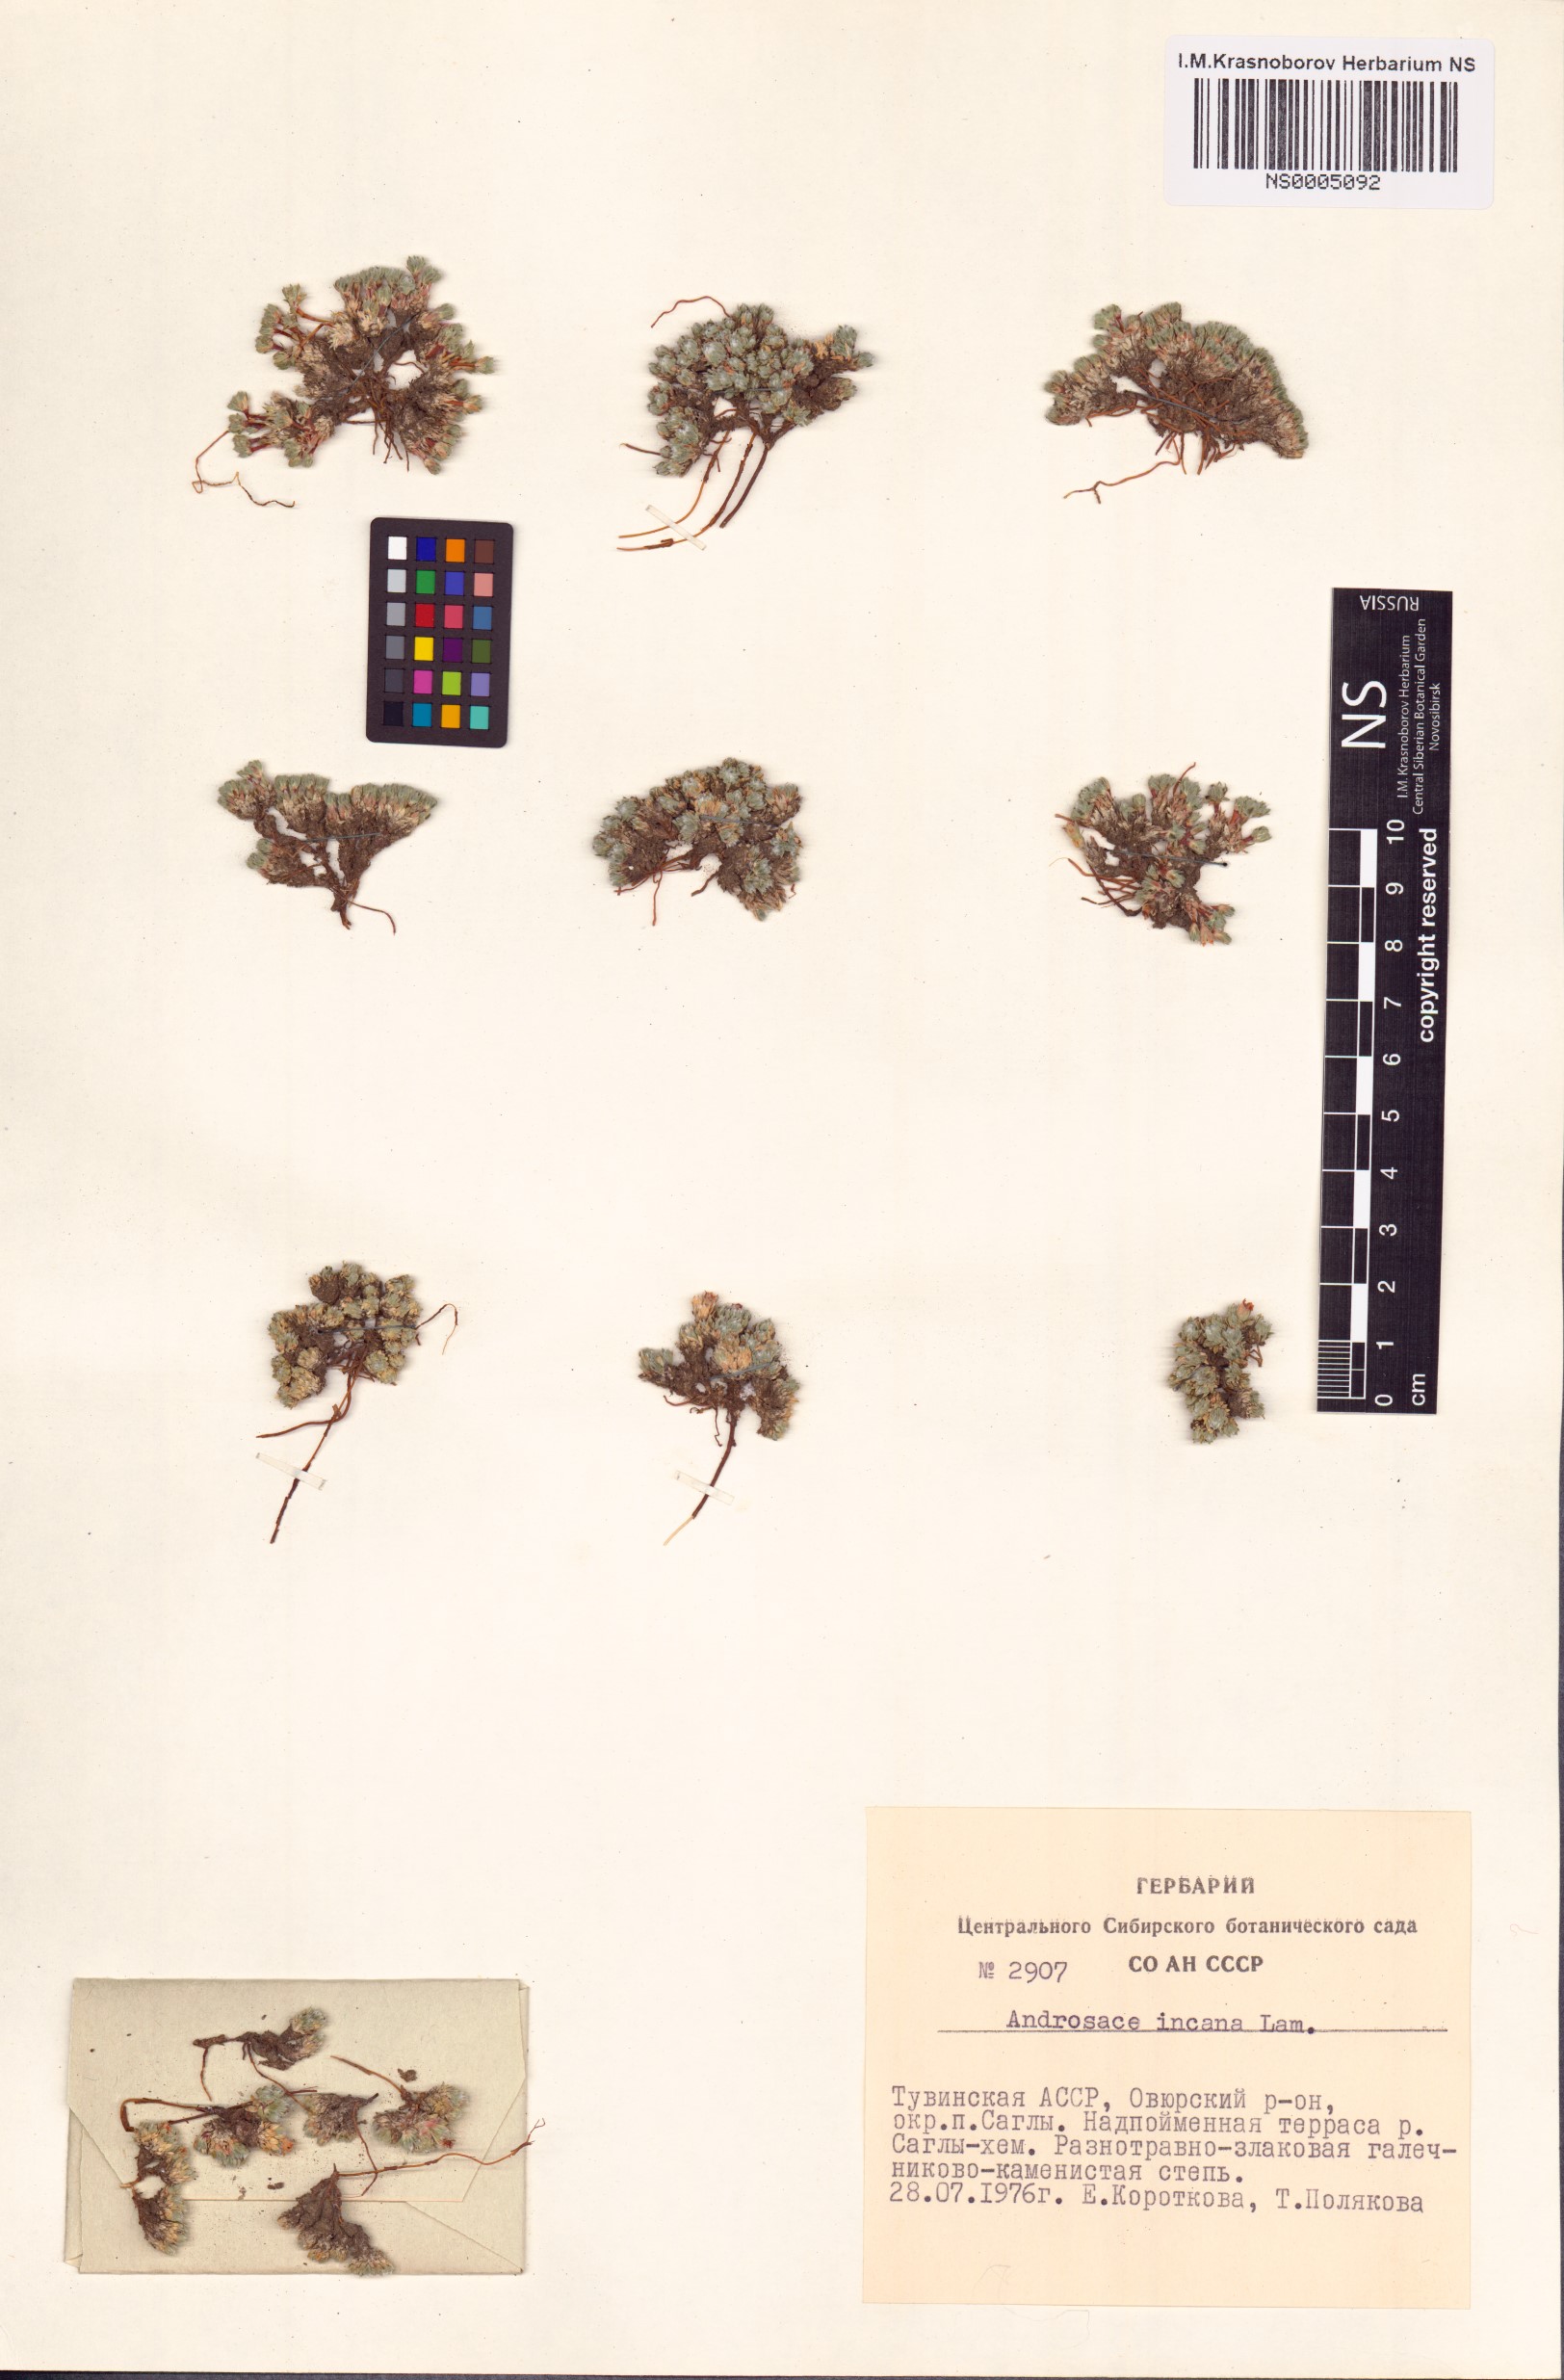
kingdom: Plantae
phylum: Tracheophyta
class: Magnoliopsida
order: Ericales
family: Primulaceae
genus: Androsace
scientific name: Androsace incana
